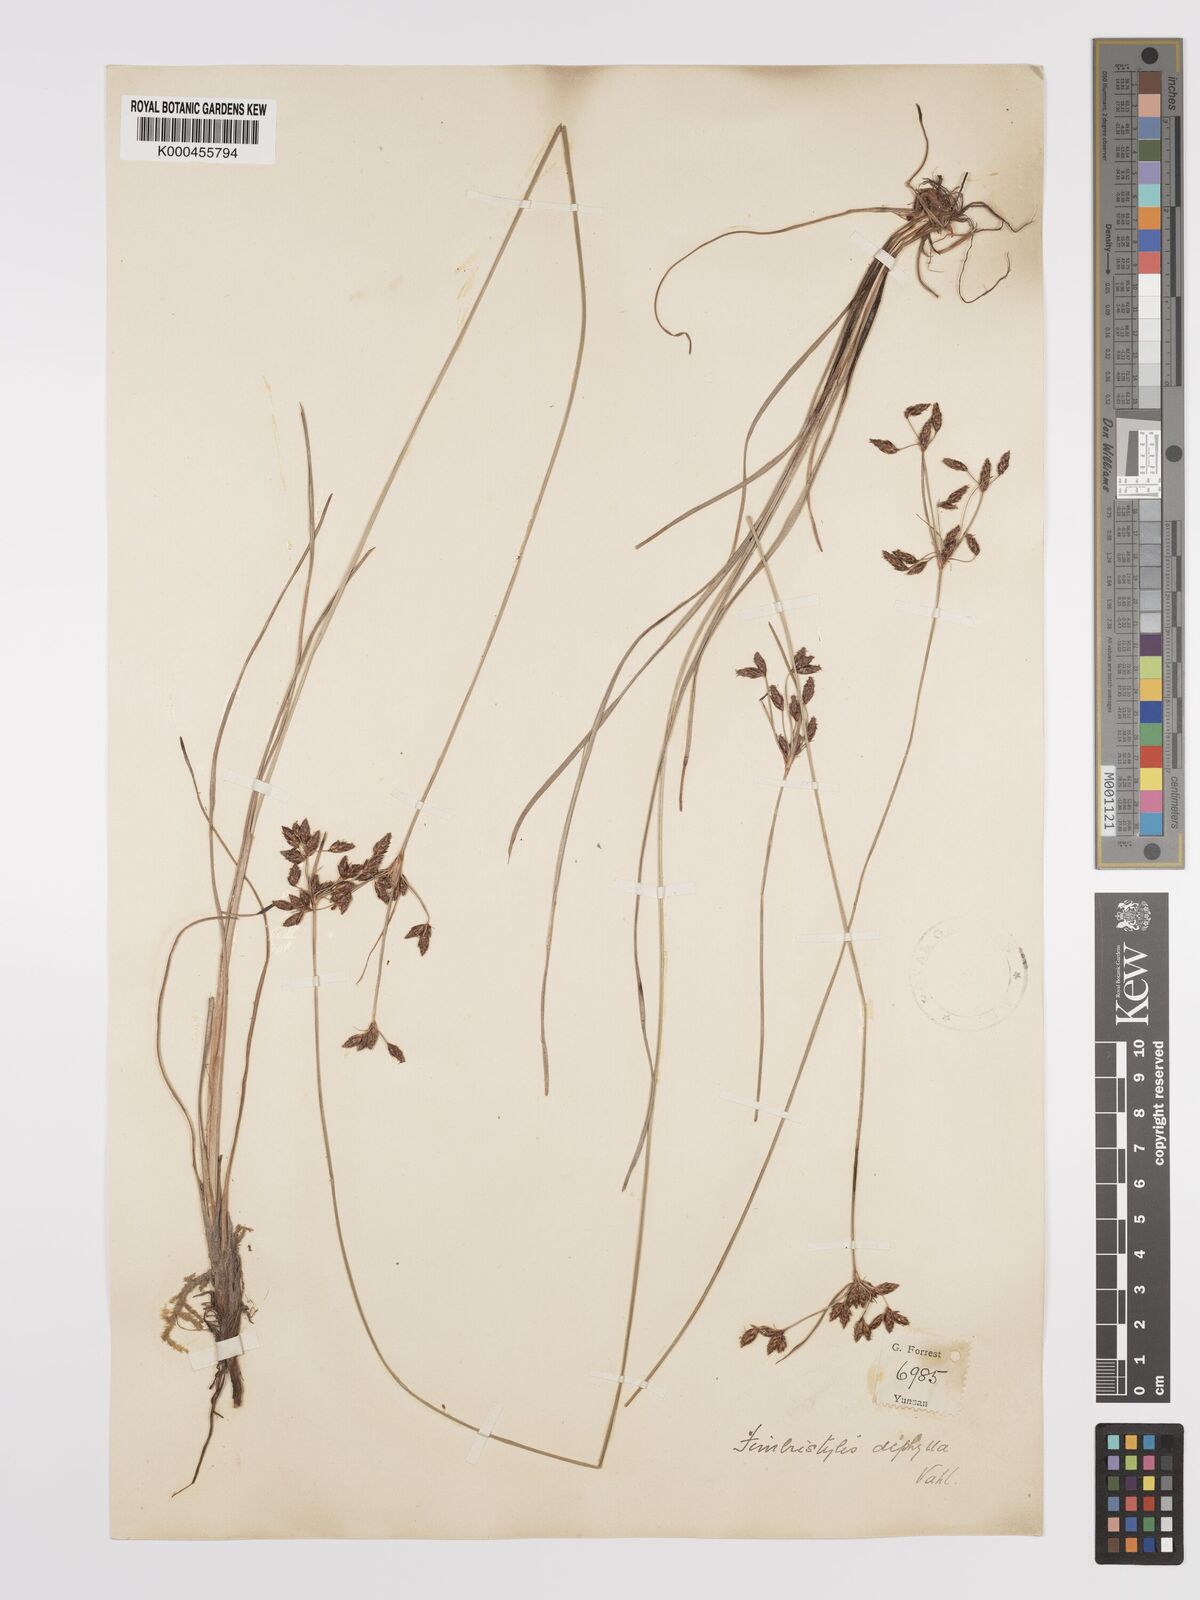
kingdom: Plantae
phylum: Tracheophyta
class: Liliopsida
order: Poales
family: Cyperaceae
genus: Fimbristylis
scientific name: Fimbristylis dichotoma
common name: Forked fimbry
